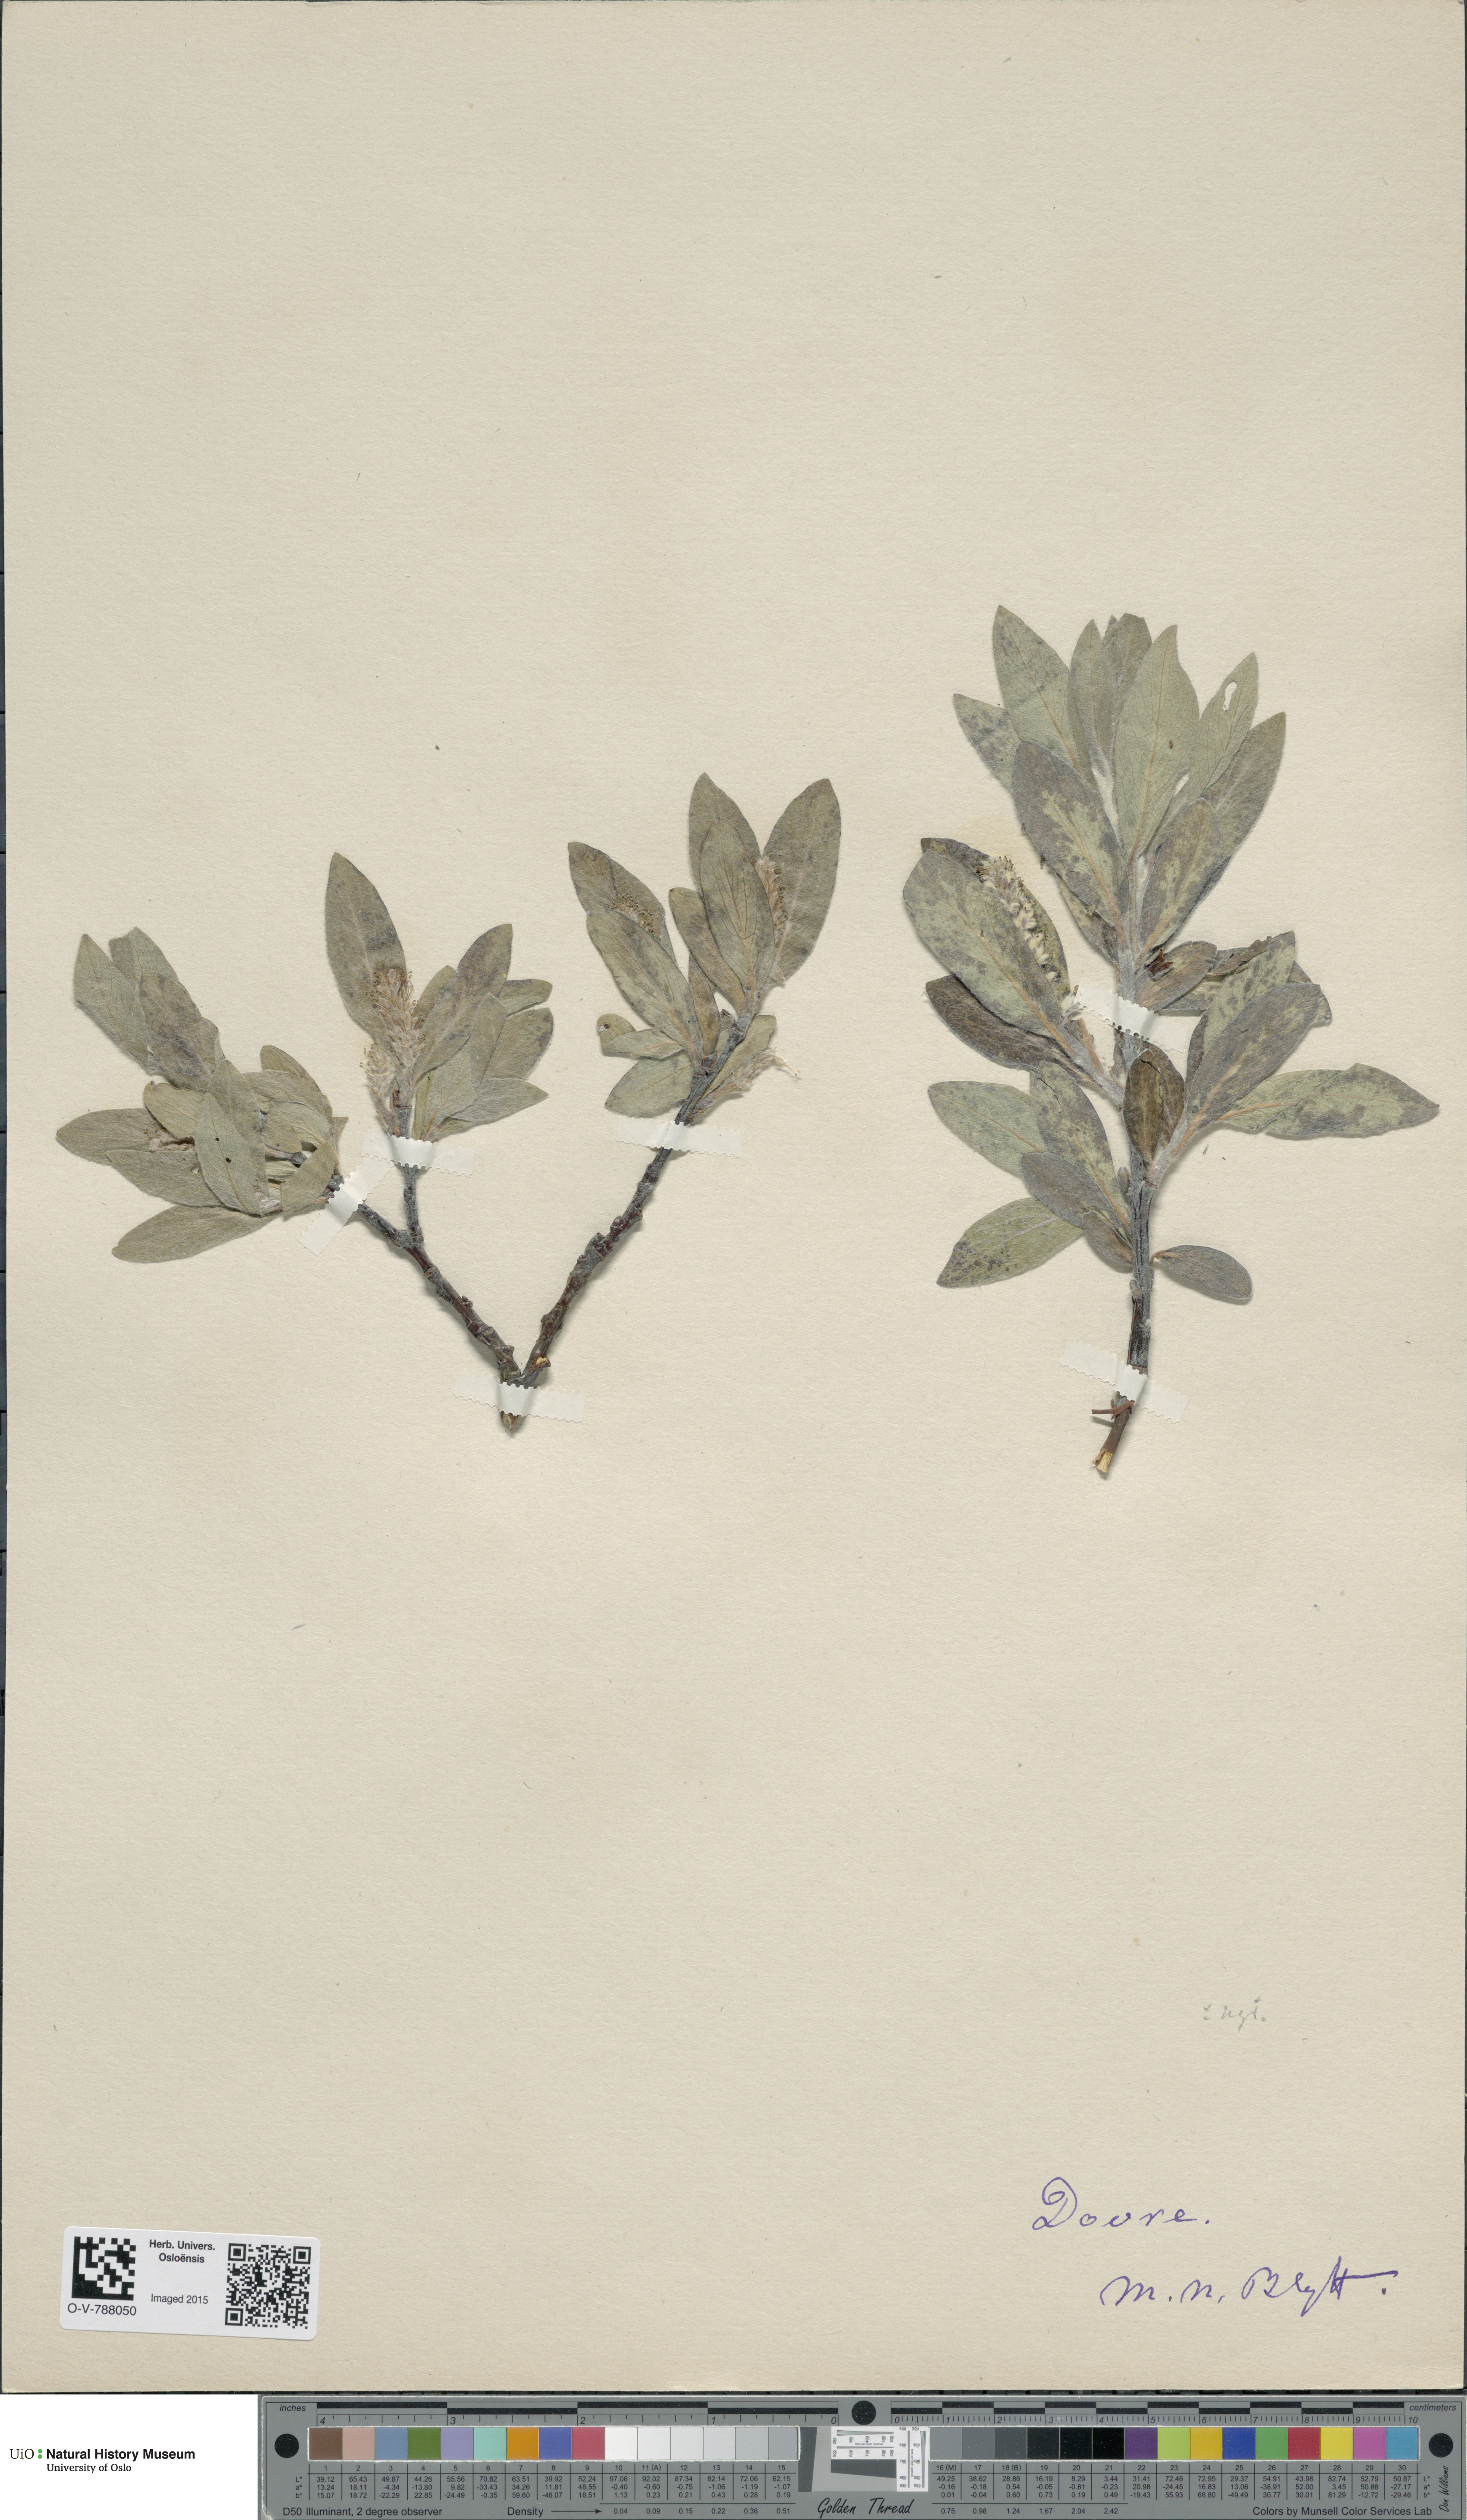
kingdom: Plantae
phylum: Tracheophyta
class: Magnoliopsida
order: Malpighiales
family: Salicaceae
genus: Salix
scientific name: Salix glauca
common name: Glaucous willow
